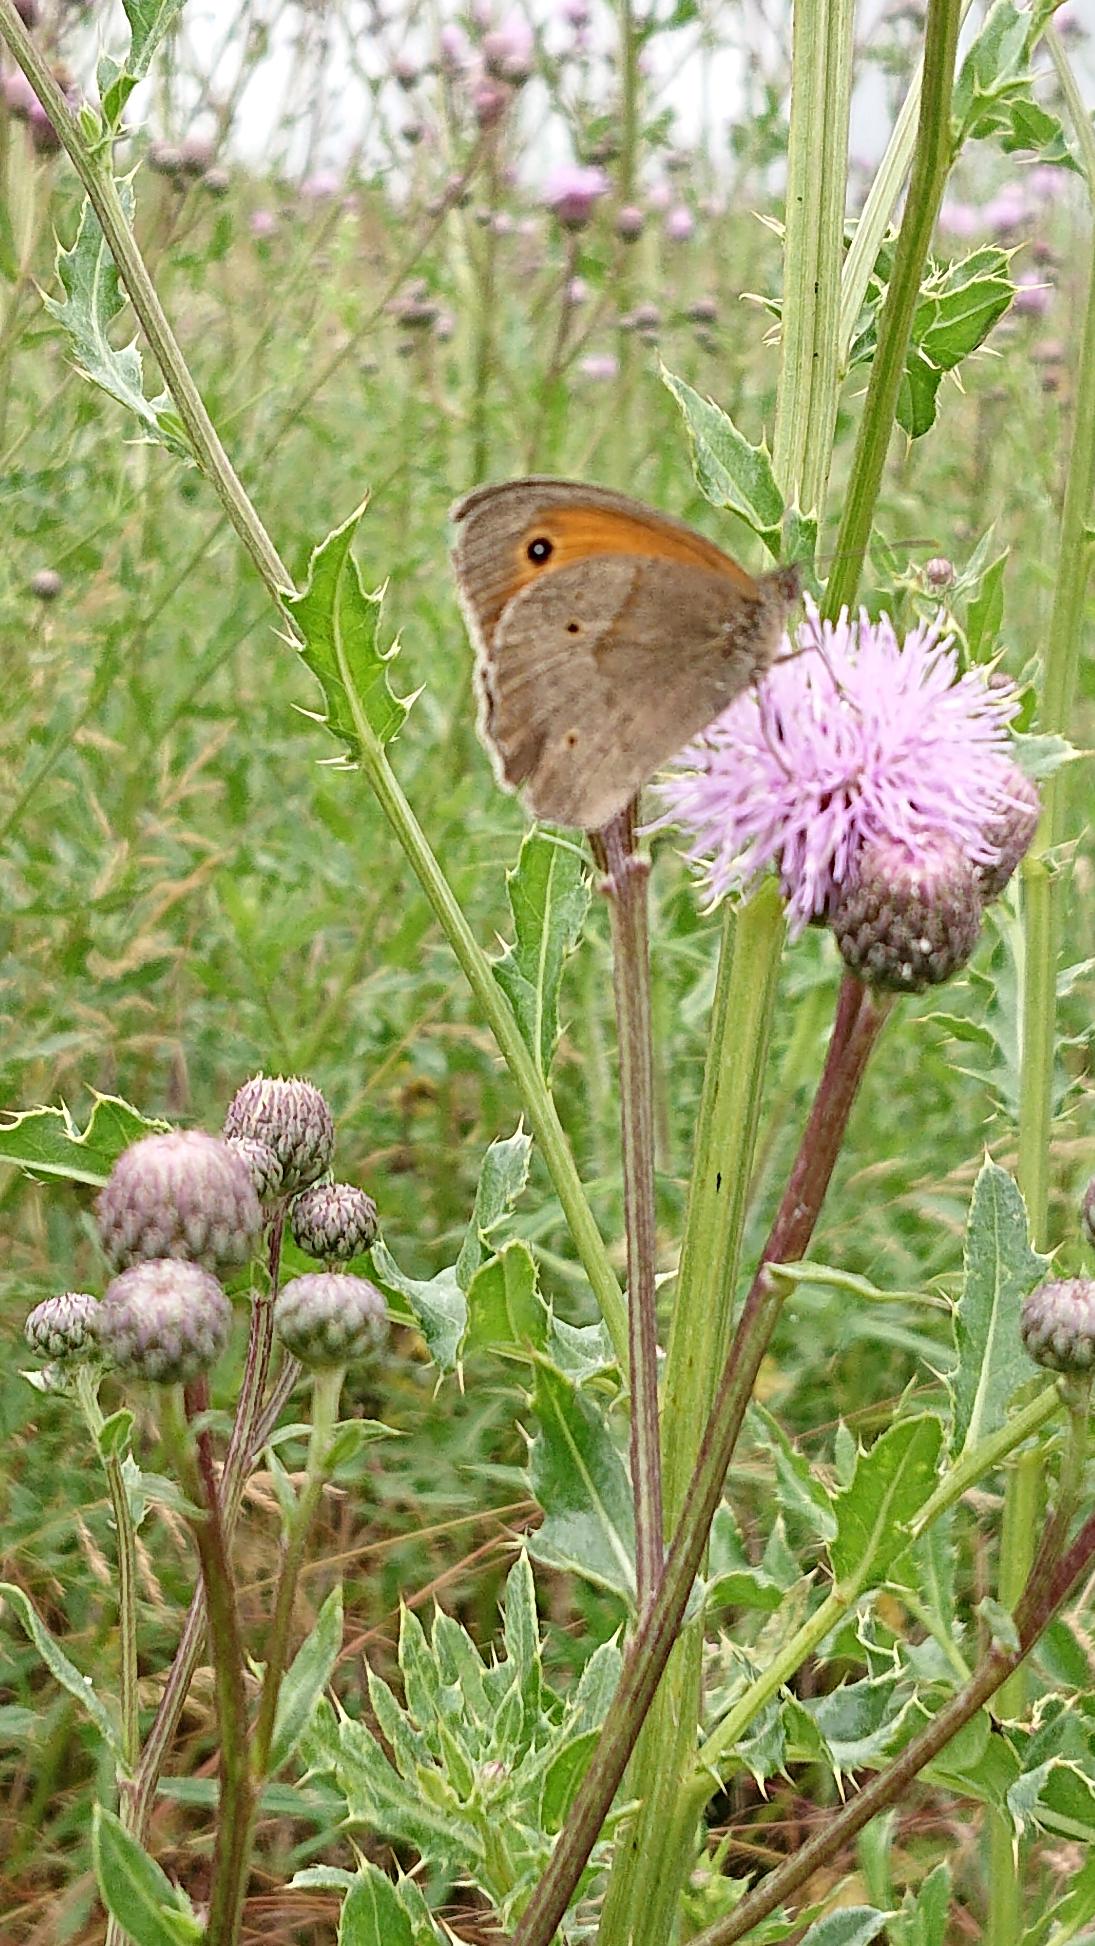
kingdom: Animalia
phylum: Arthropoda
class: Insecta
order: Lepidoptera
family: Nymphalidae
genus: Maniola
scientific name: Maniola jurtina
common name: Græsrandøje
